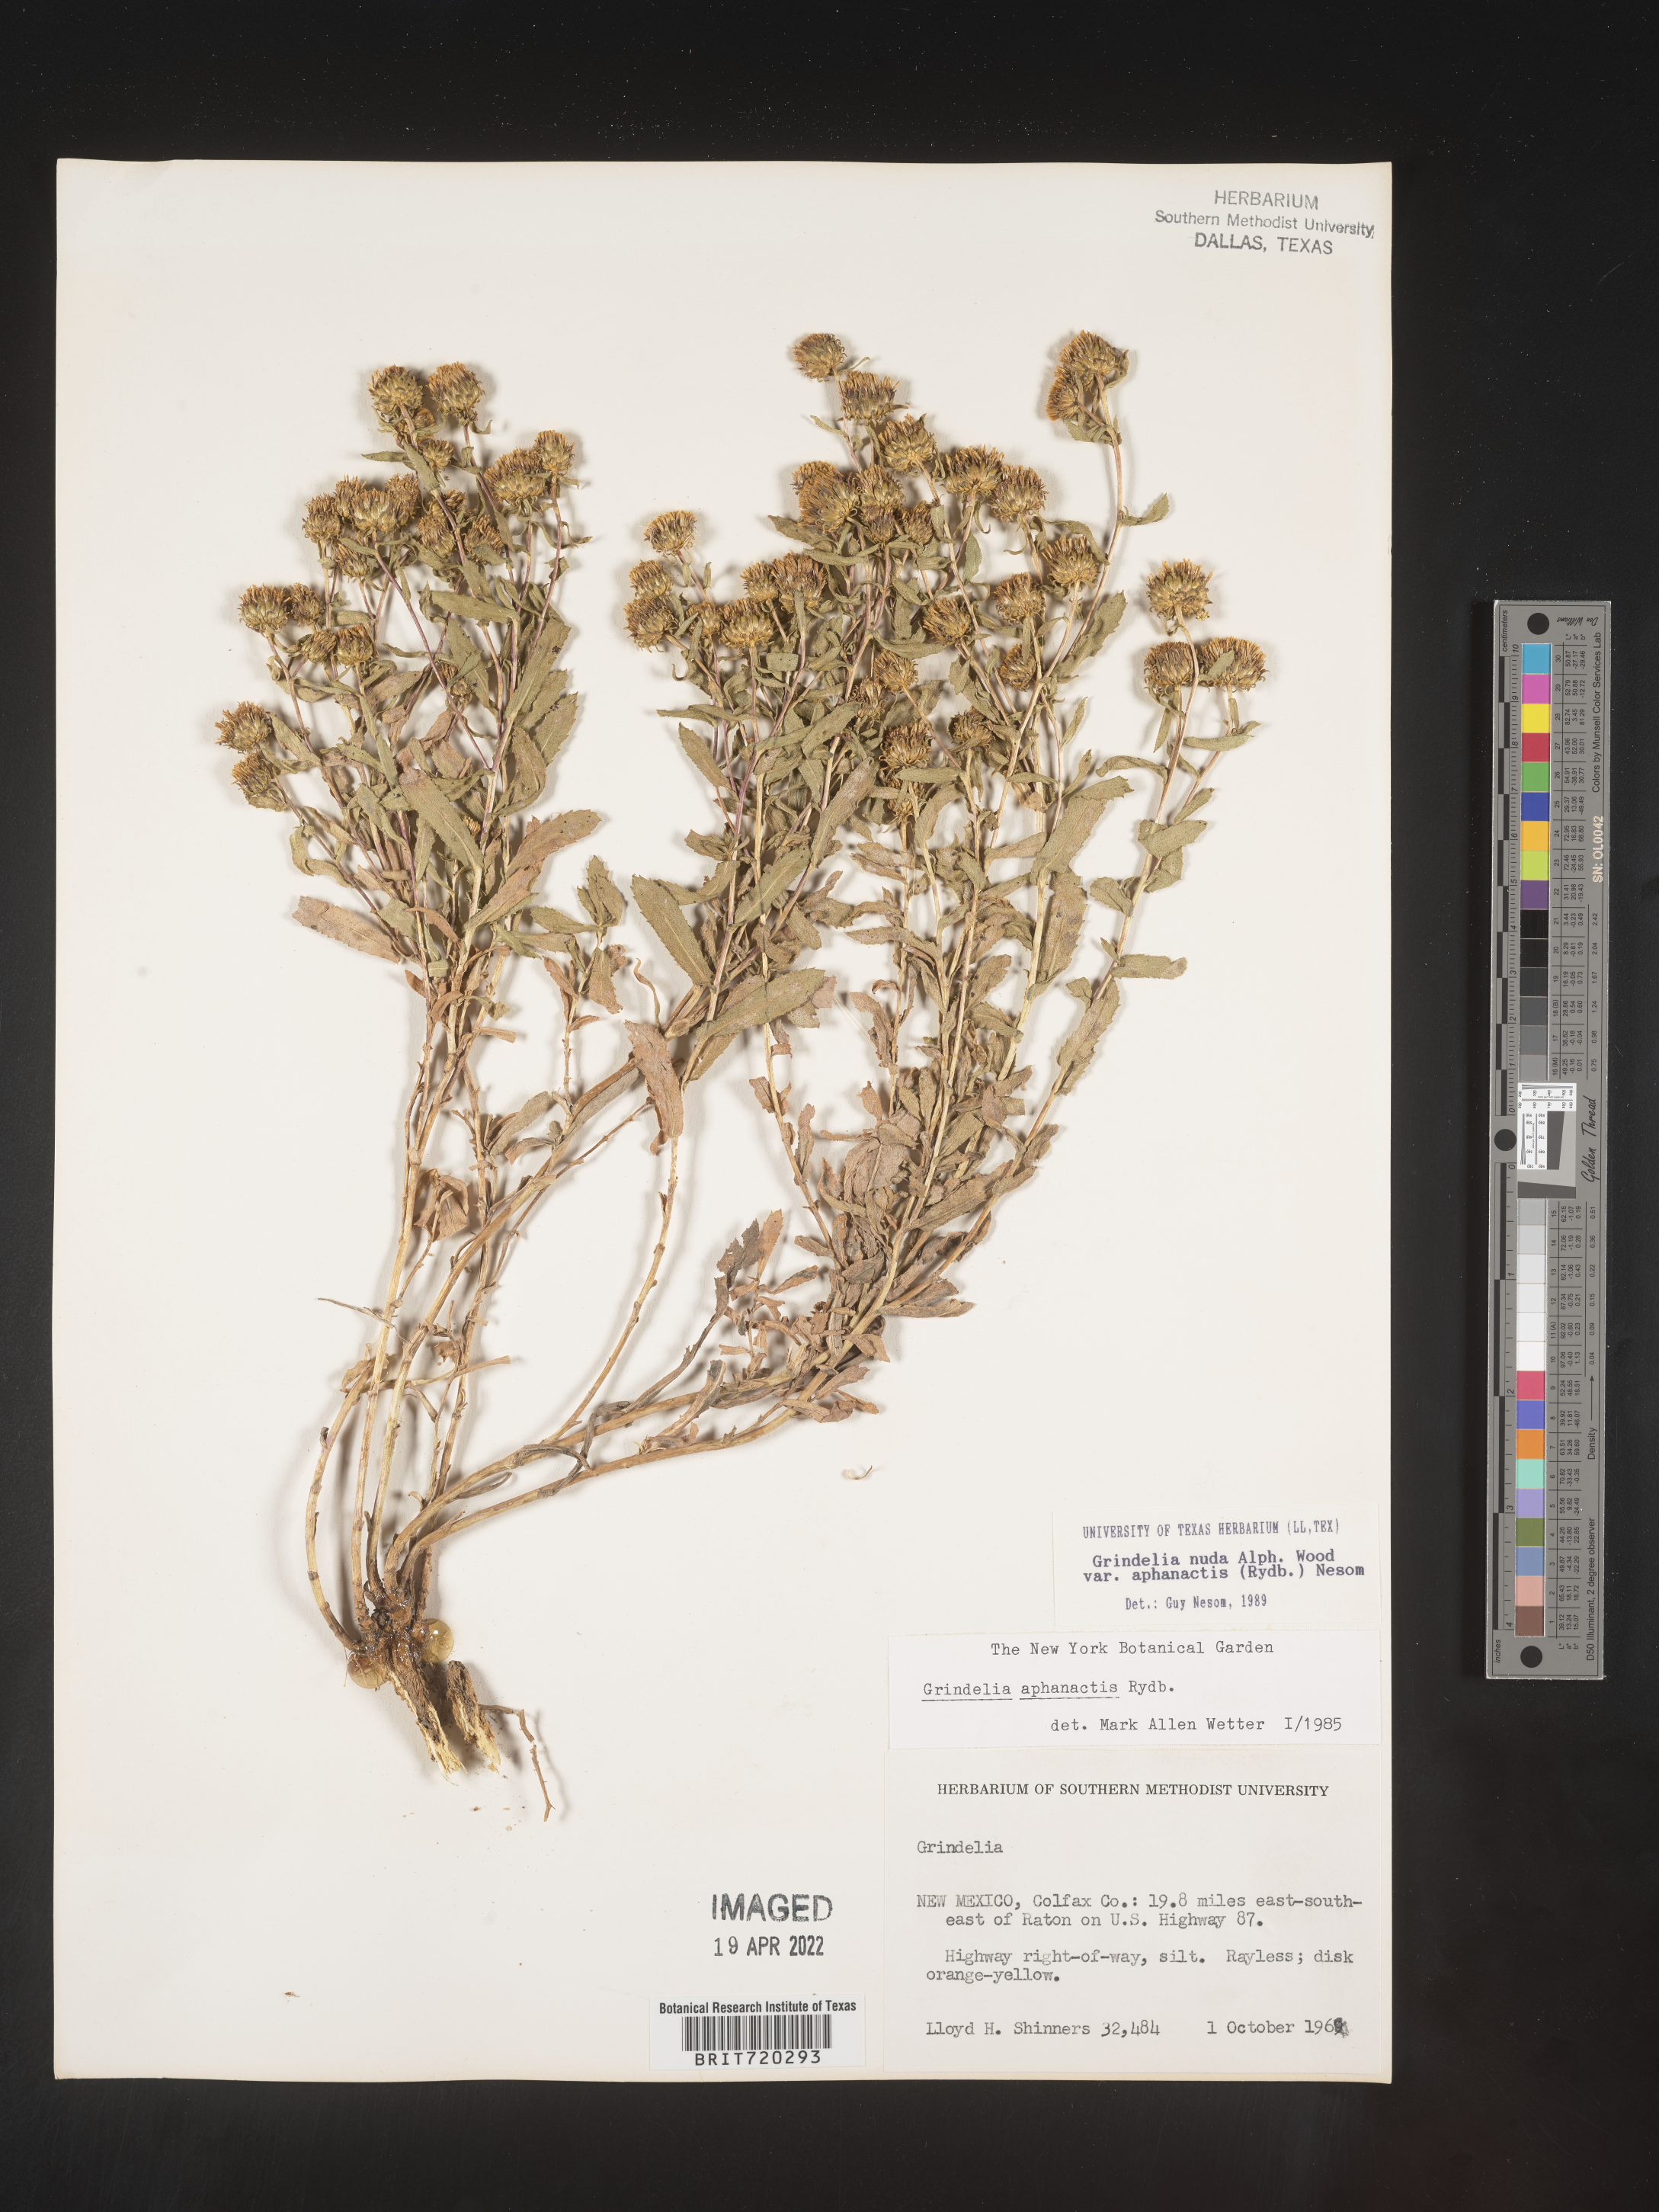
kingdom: Plantae
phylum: Tracheophyta
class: Magnoliopsida
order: Asterales
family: Asteraceae
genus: Grindelia
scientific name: Grindelia nuda
